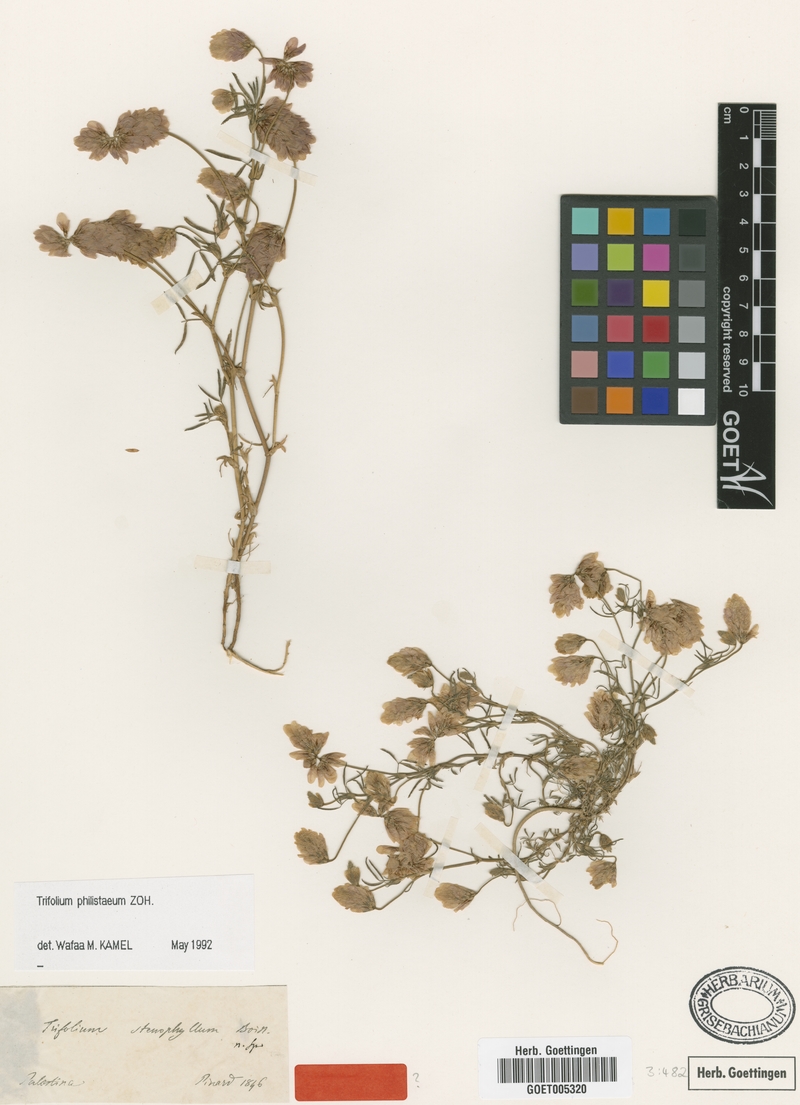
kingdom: Plantae
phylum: Tracheophyta
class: Magnoliopsida
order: Fabales
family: Fabaceae
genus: Trifolium
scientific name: Trifolium philistaeum
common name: Palestine clover
